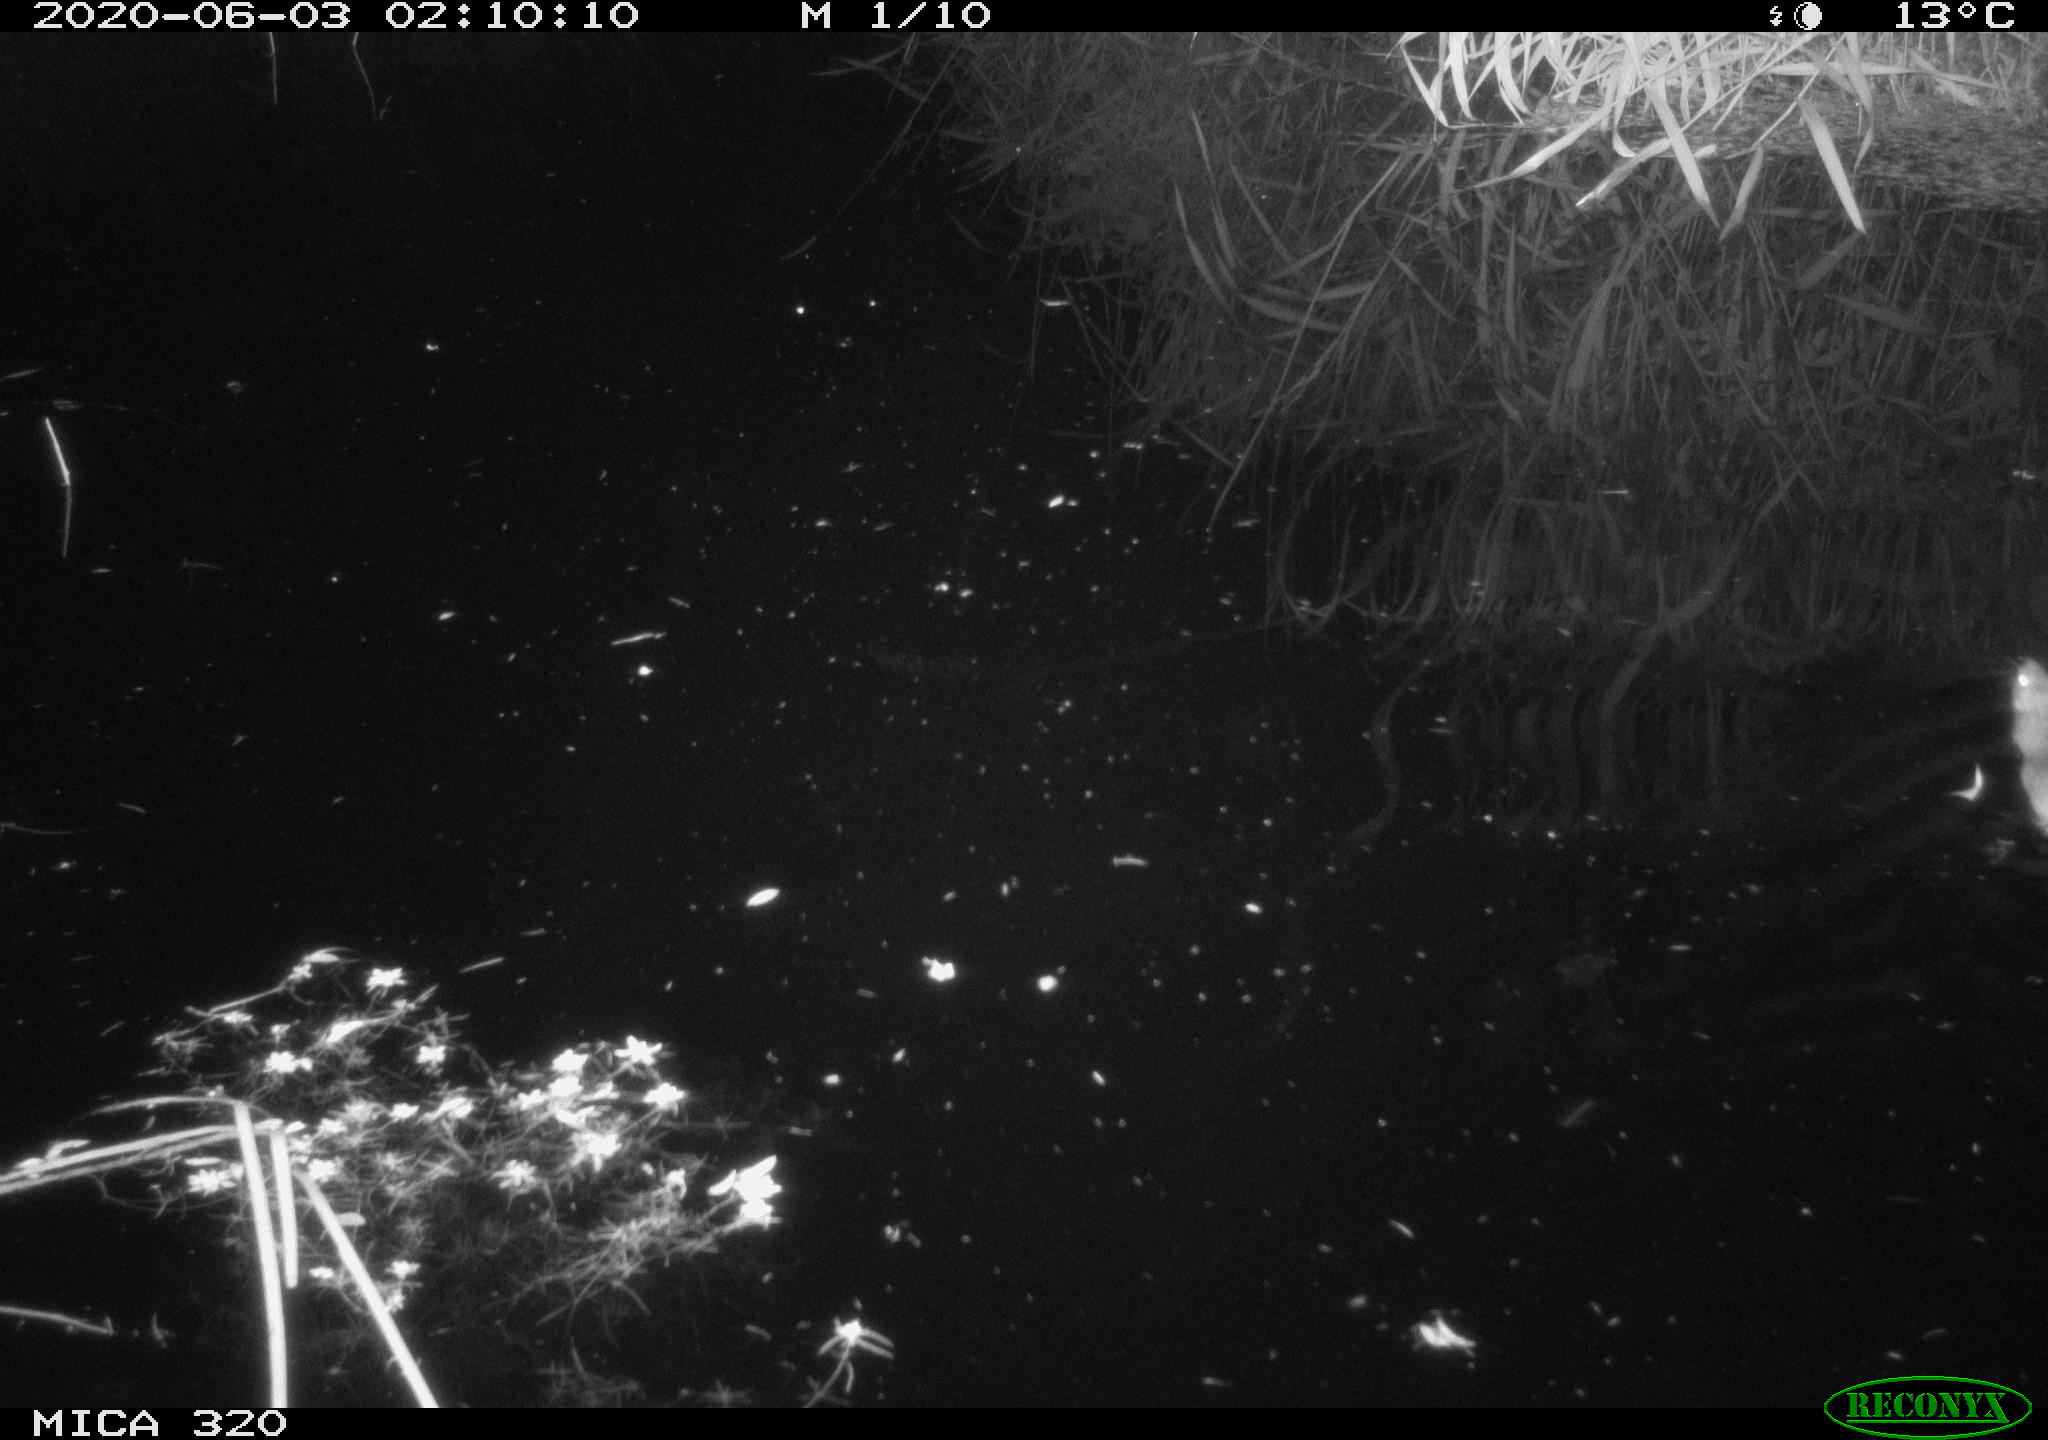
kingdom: Animalia
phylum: Chordata
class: Mammalia
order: Rodentia
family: Muridae
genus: Rattus
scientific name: Rattus norvegicus
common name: Brown rat
